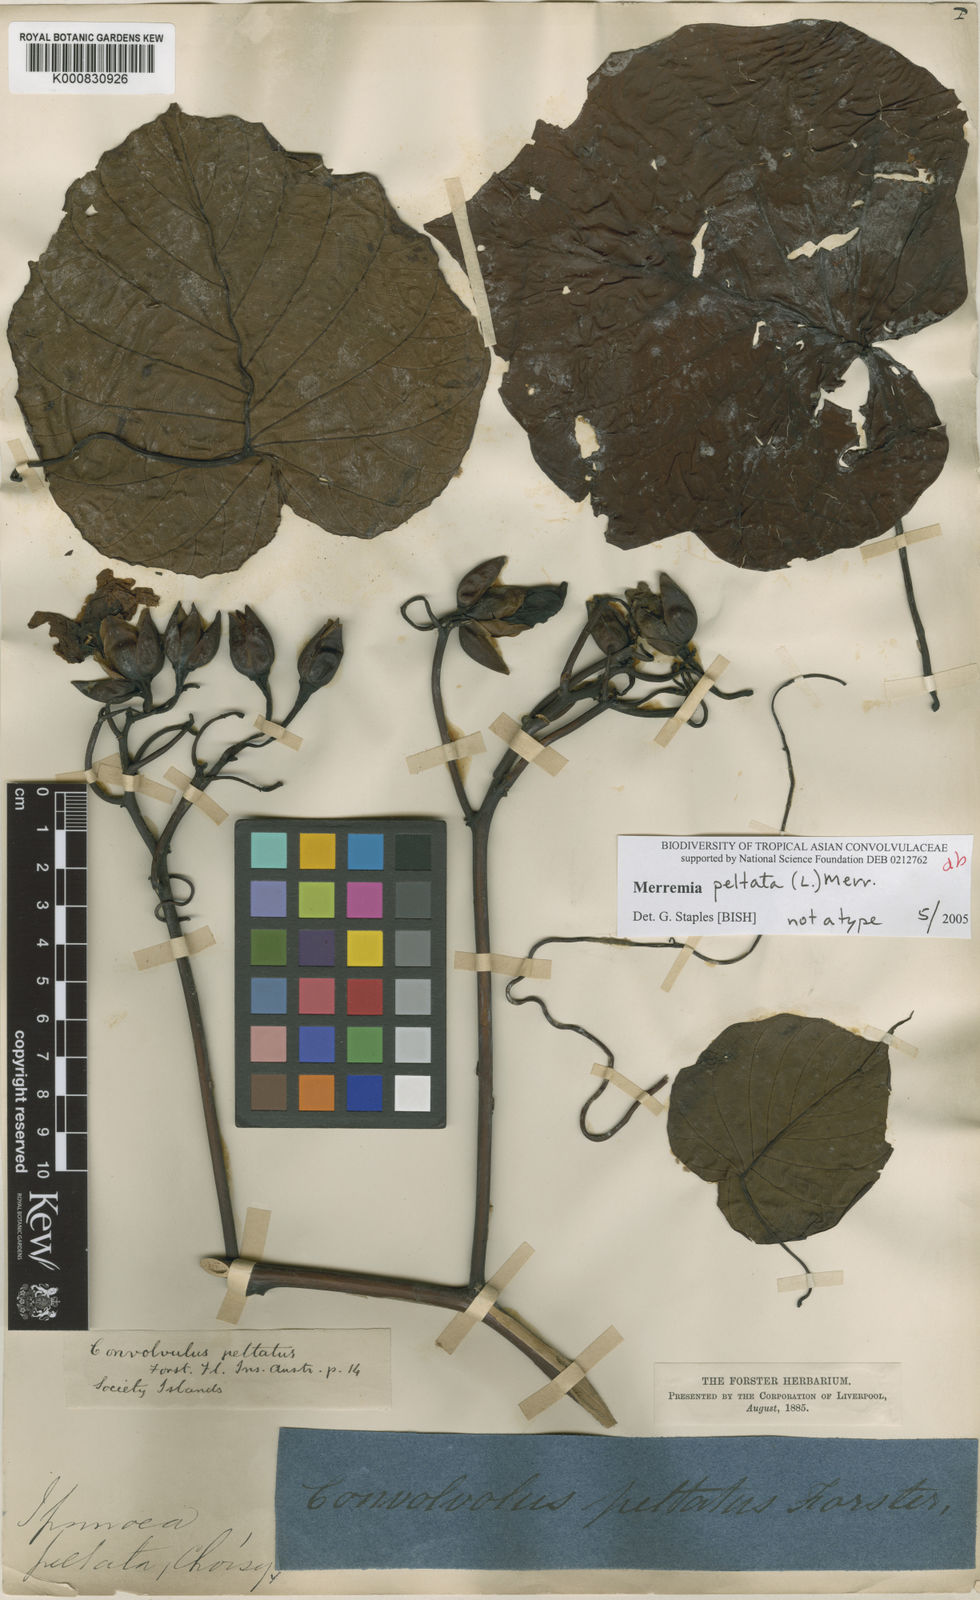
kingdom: Plantae
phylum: Tracheophyta
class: Magnoliopsida
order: Solanales
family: Convolvulaceae
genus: Decalobanthus
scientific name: Decalobanthus peltatus
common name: Merremia
